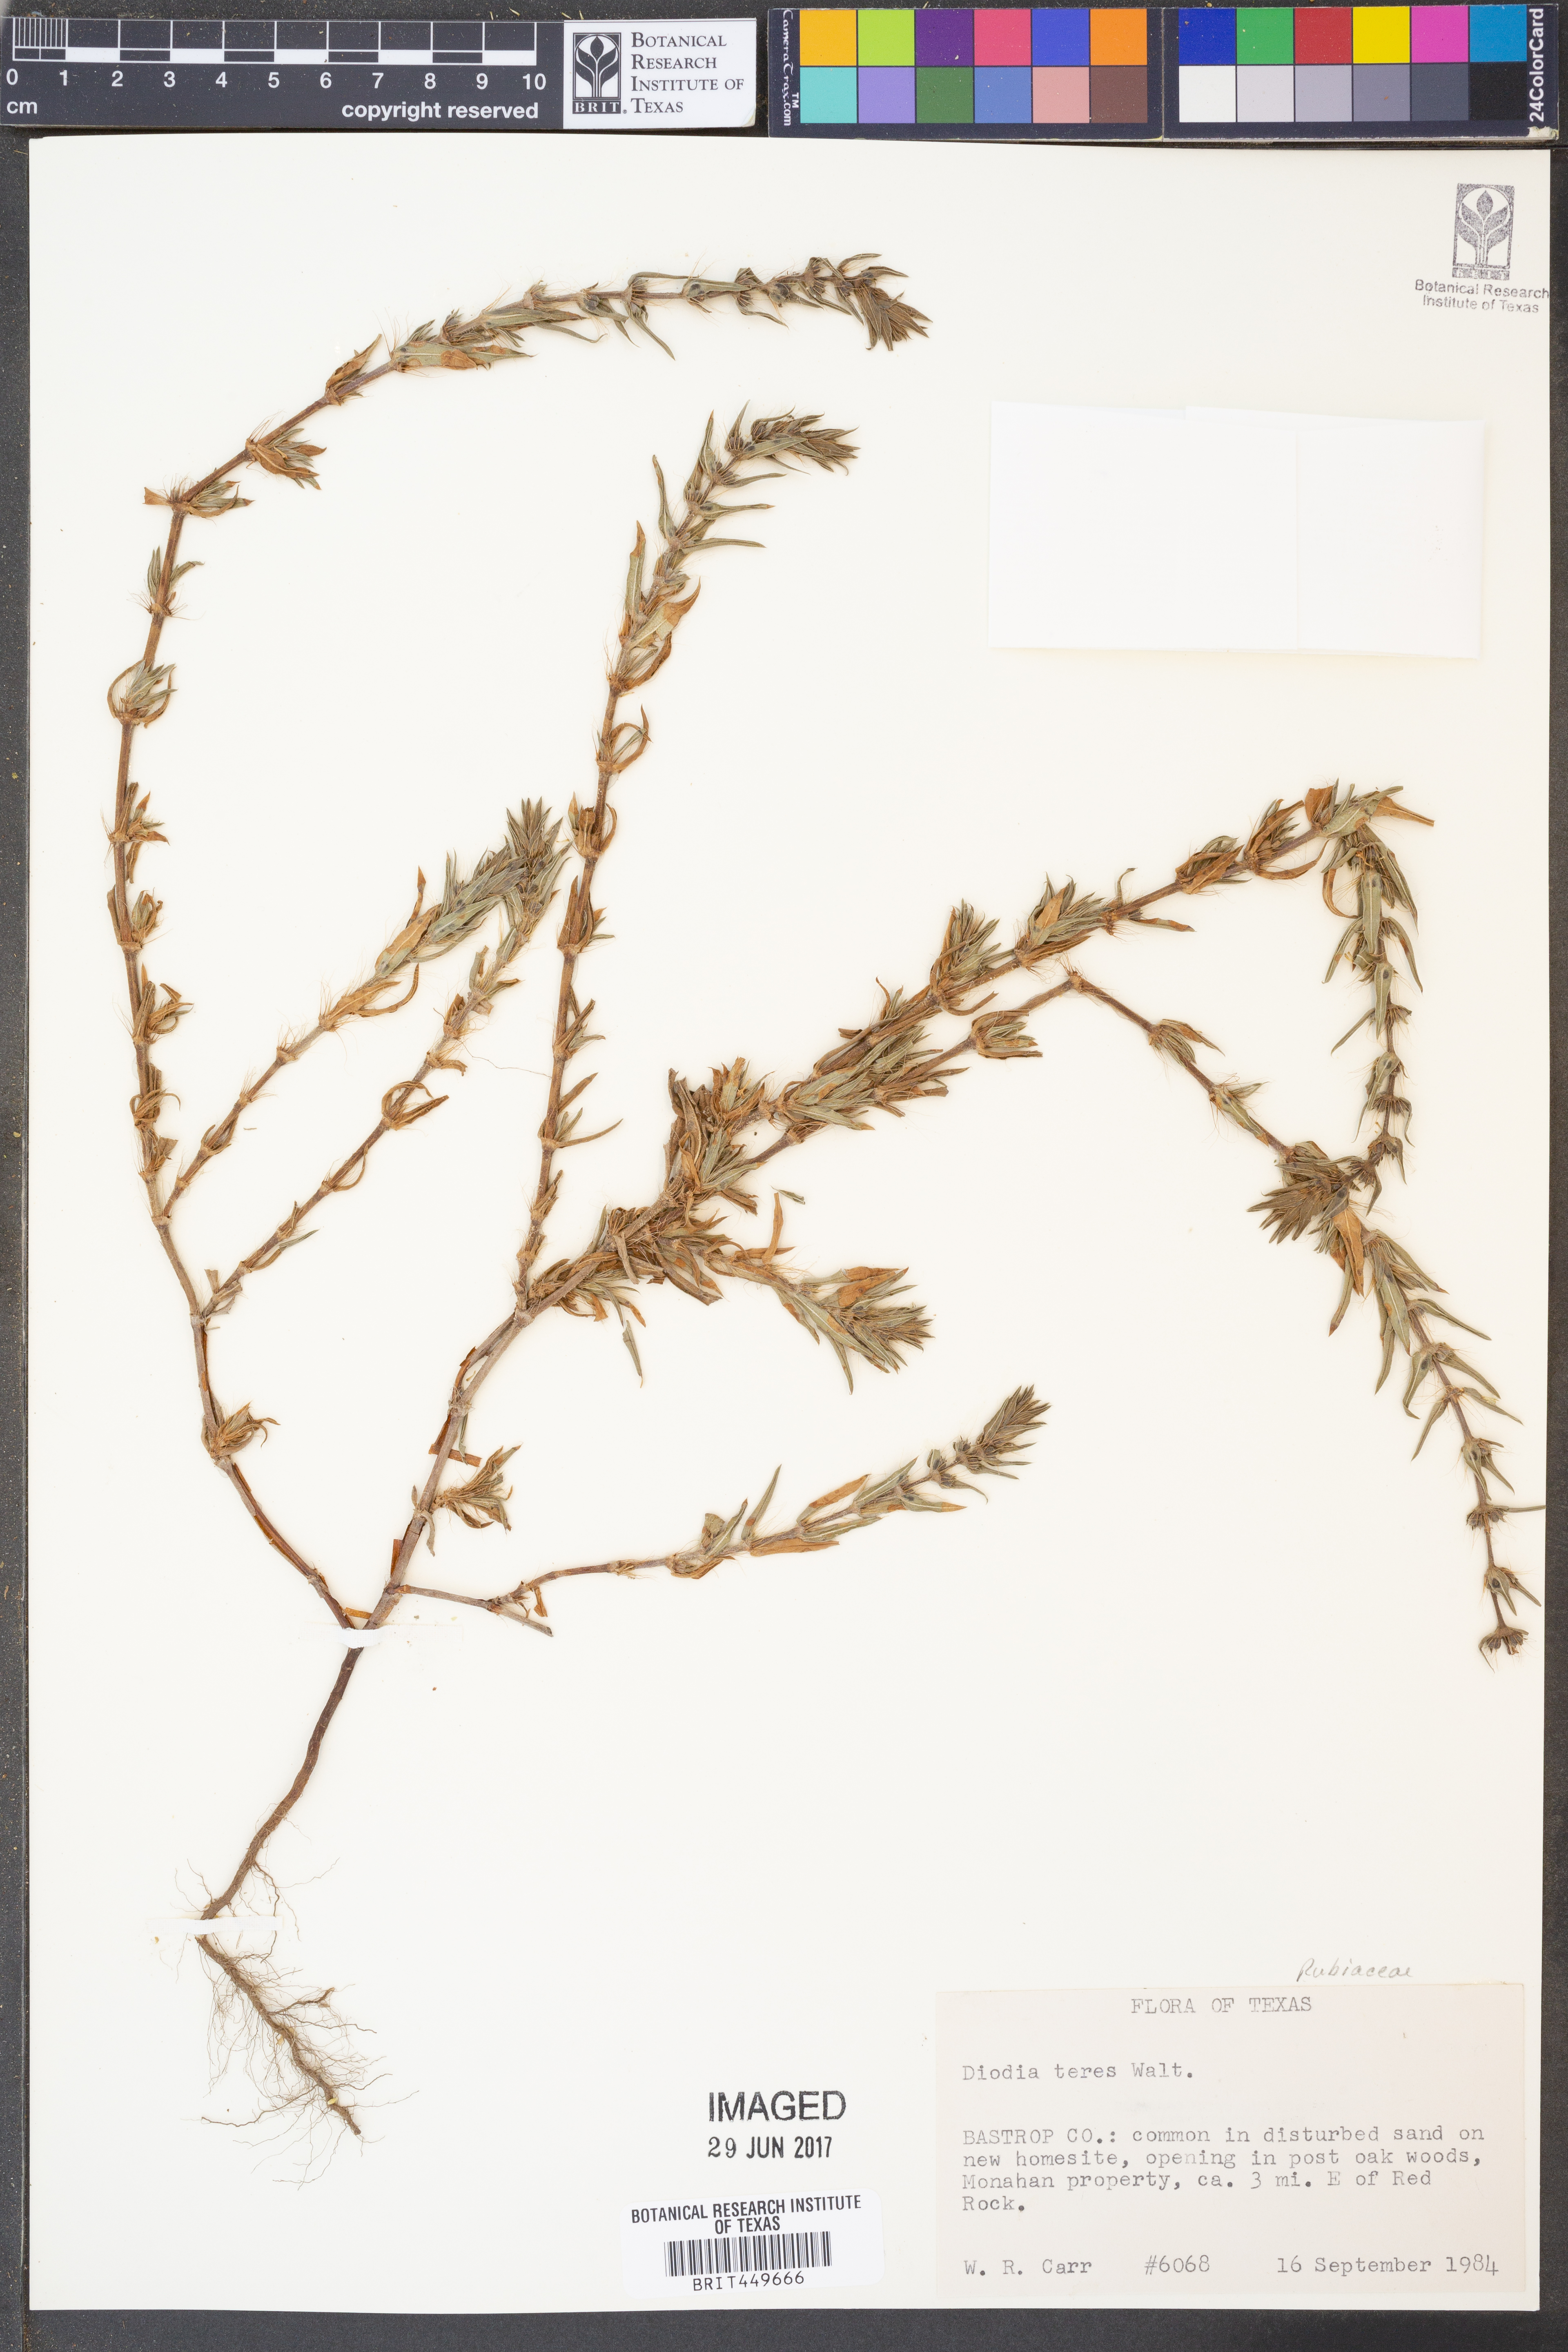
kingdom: Plantae
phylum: Tracheophyta
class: Magnoliopsida
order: Gentianales
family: Rubiaceae
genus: Hexasepalum
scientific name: Hexasepalum teres
